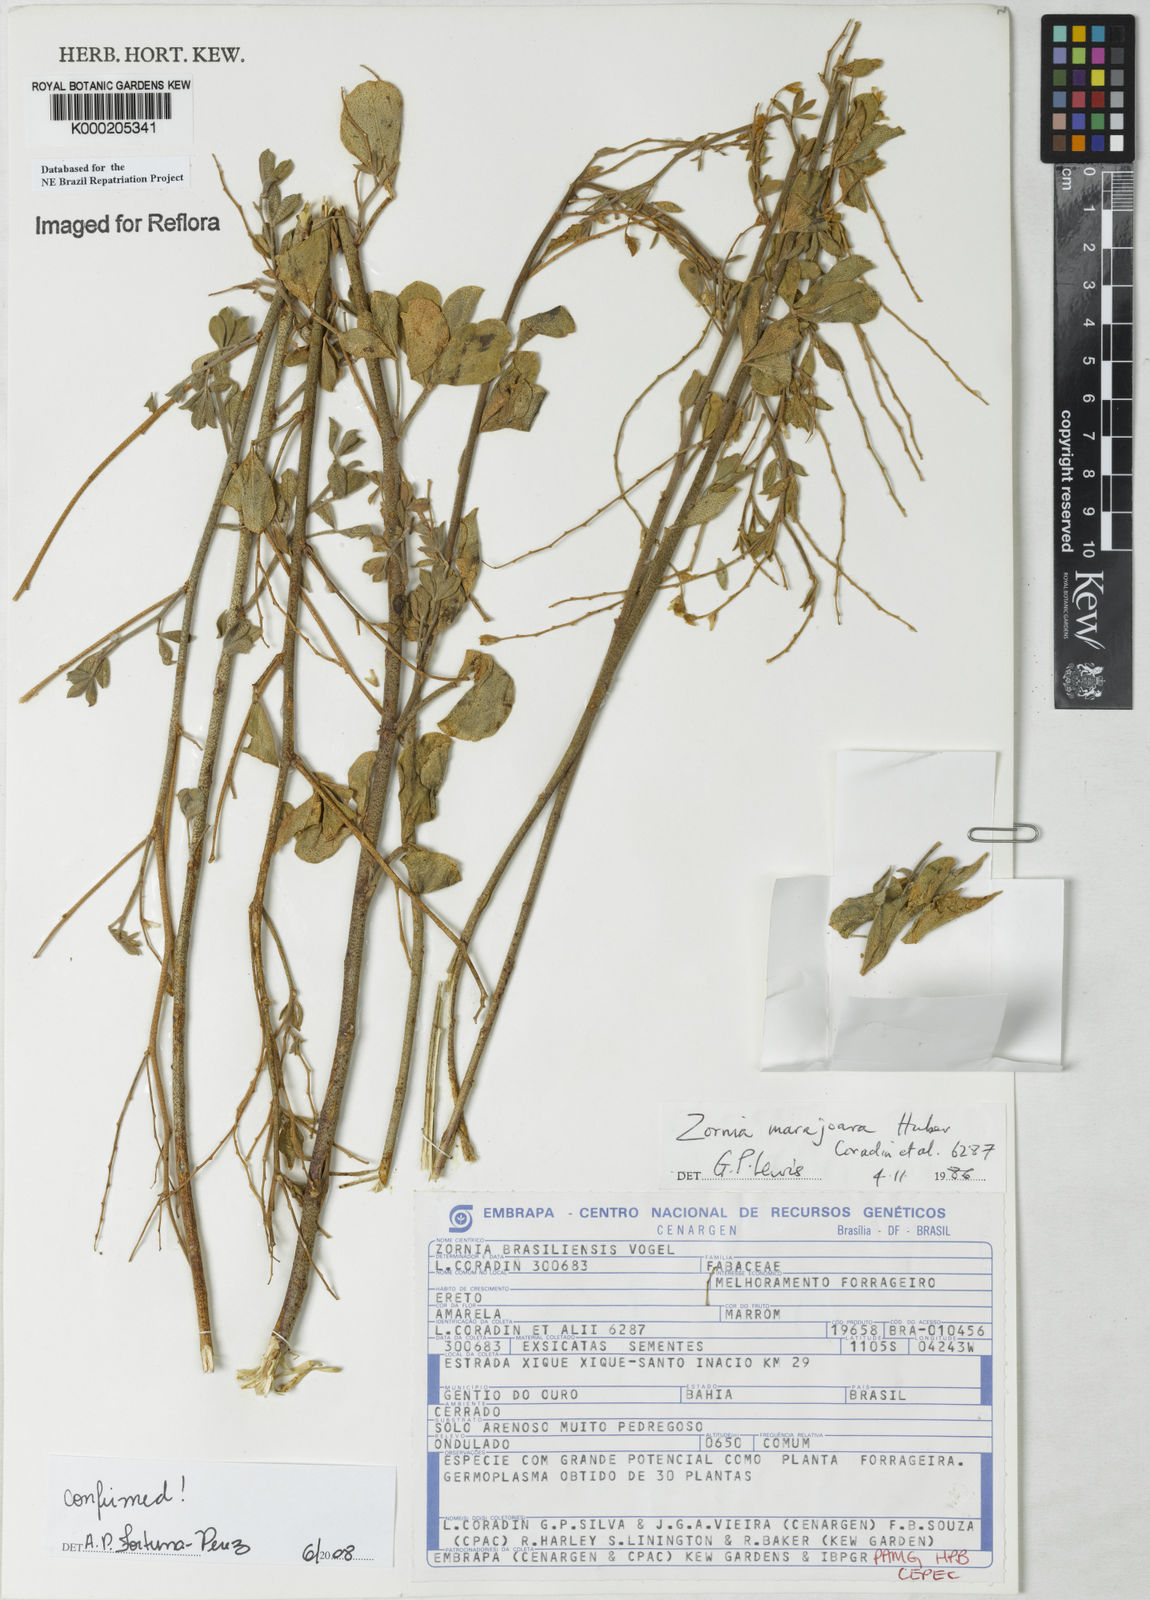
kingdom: Plantae
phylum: Tracheophyta
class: Magnoliopsida
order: Fabales
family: Fabaceae
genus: Zornia
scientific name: Zornia guanipensis
